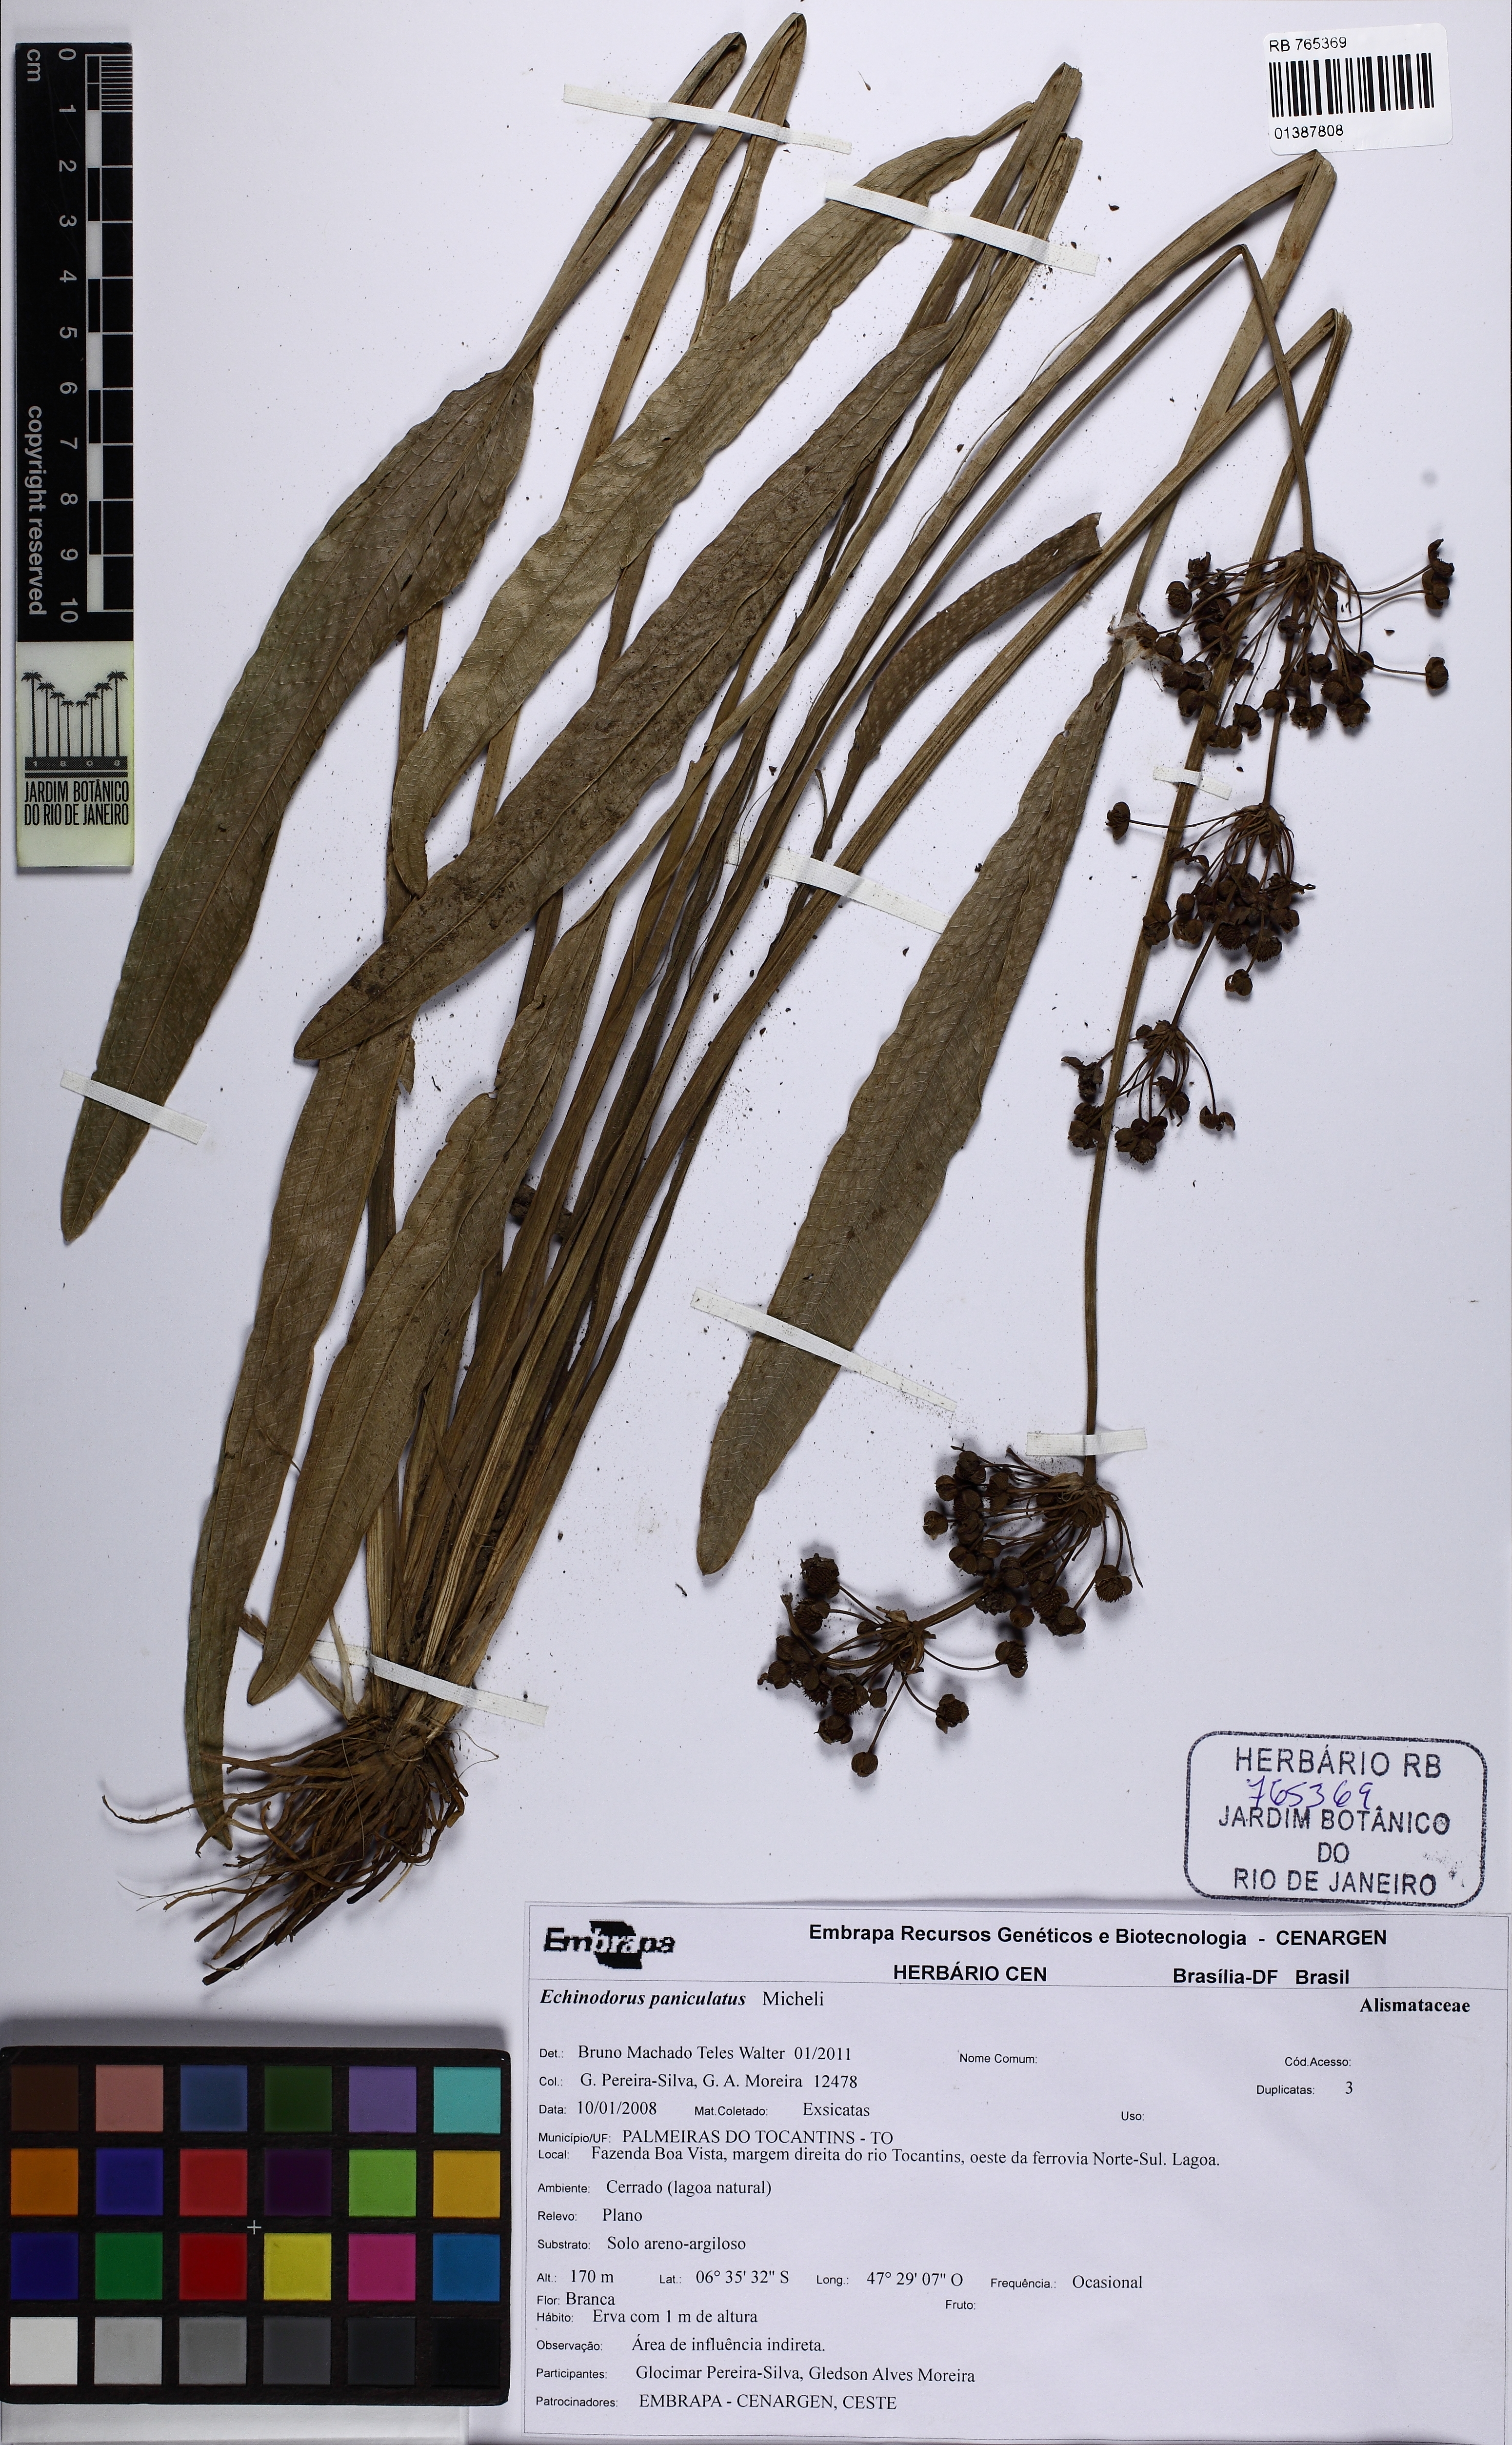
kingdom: Plantae
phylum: Tracheophyta
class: Liliopsida
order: Alismatales
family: Alismataceae
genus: Aquarius
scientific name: Aquarius paniculatus
